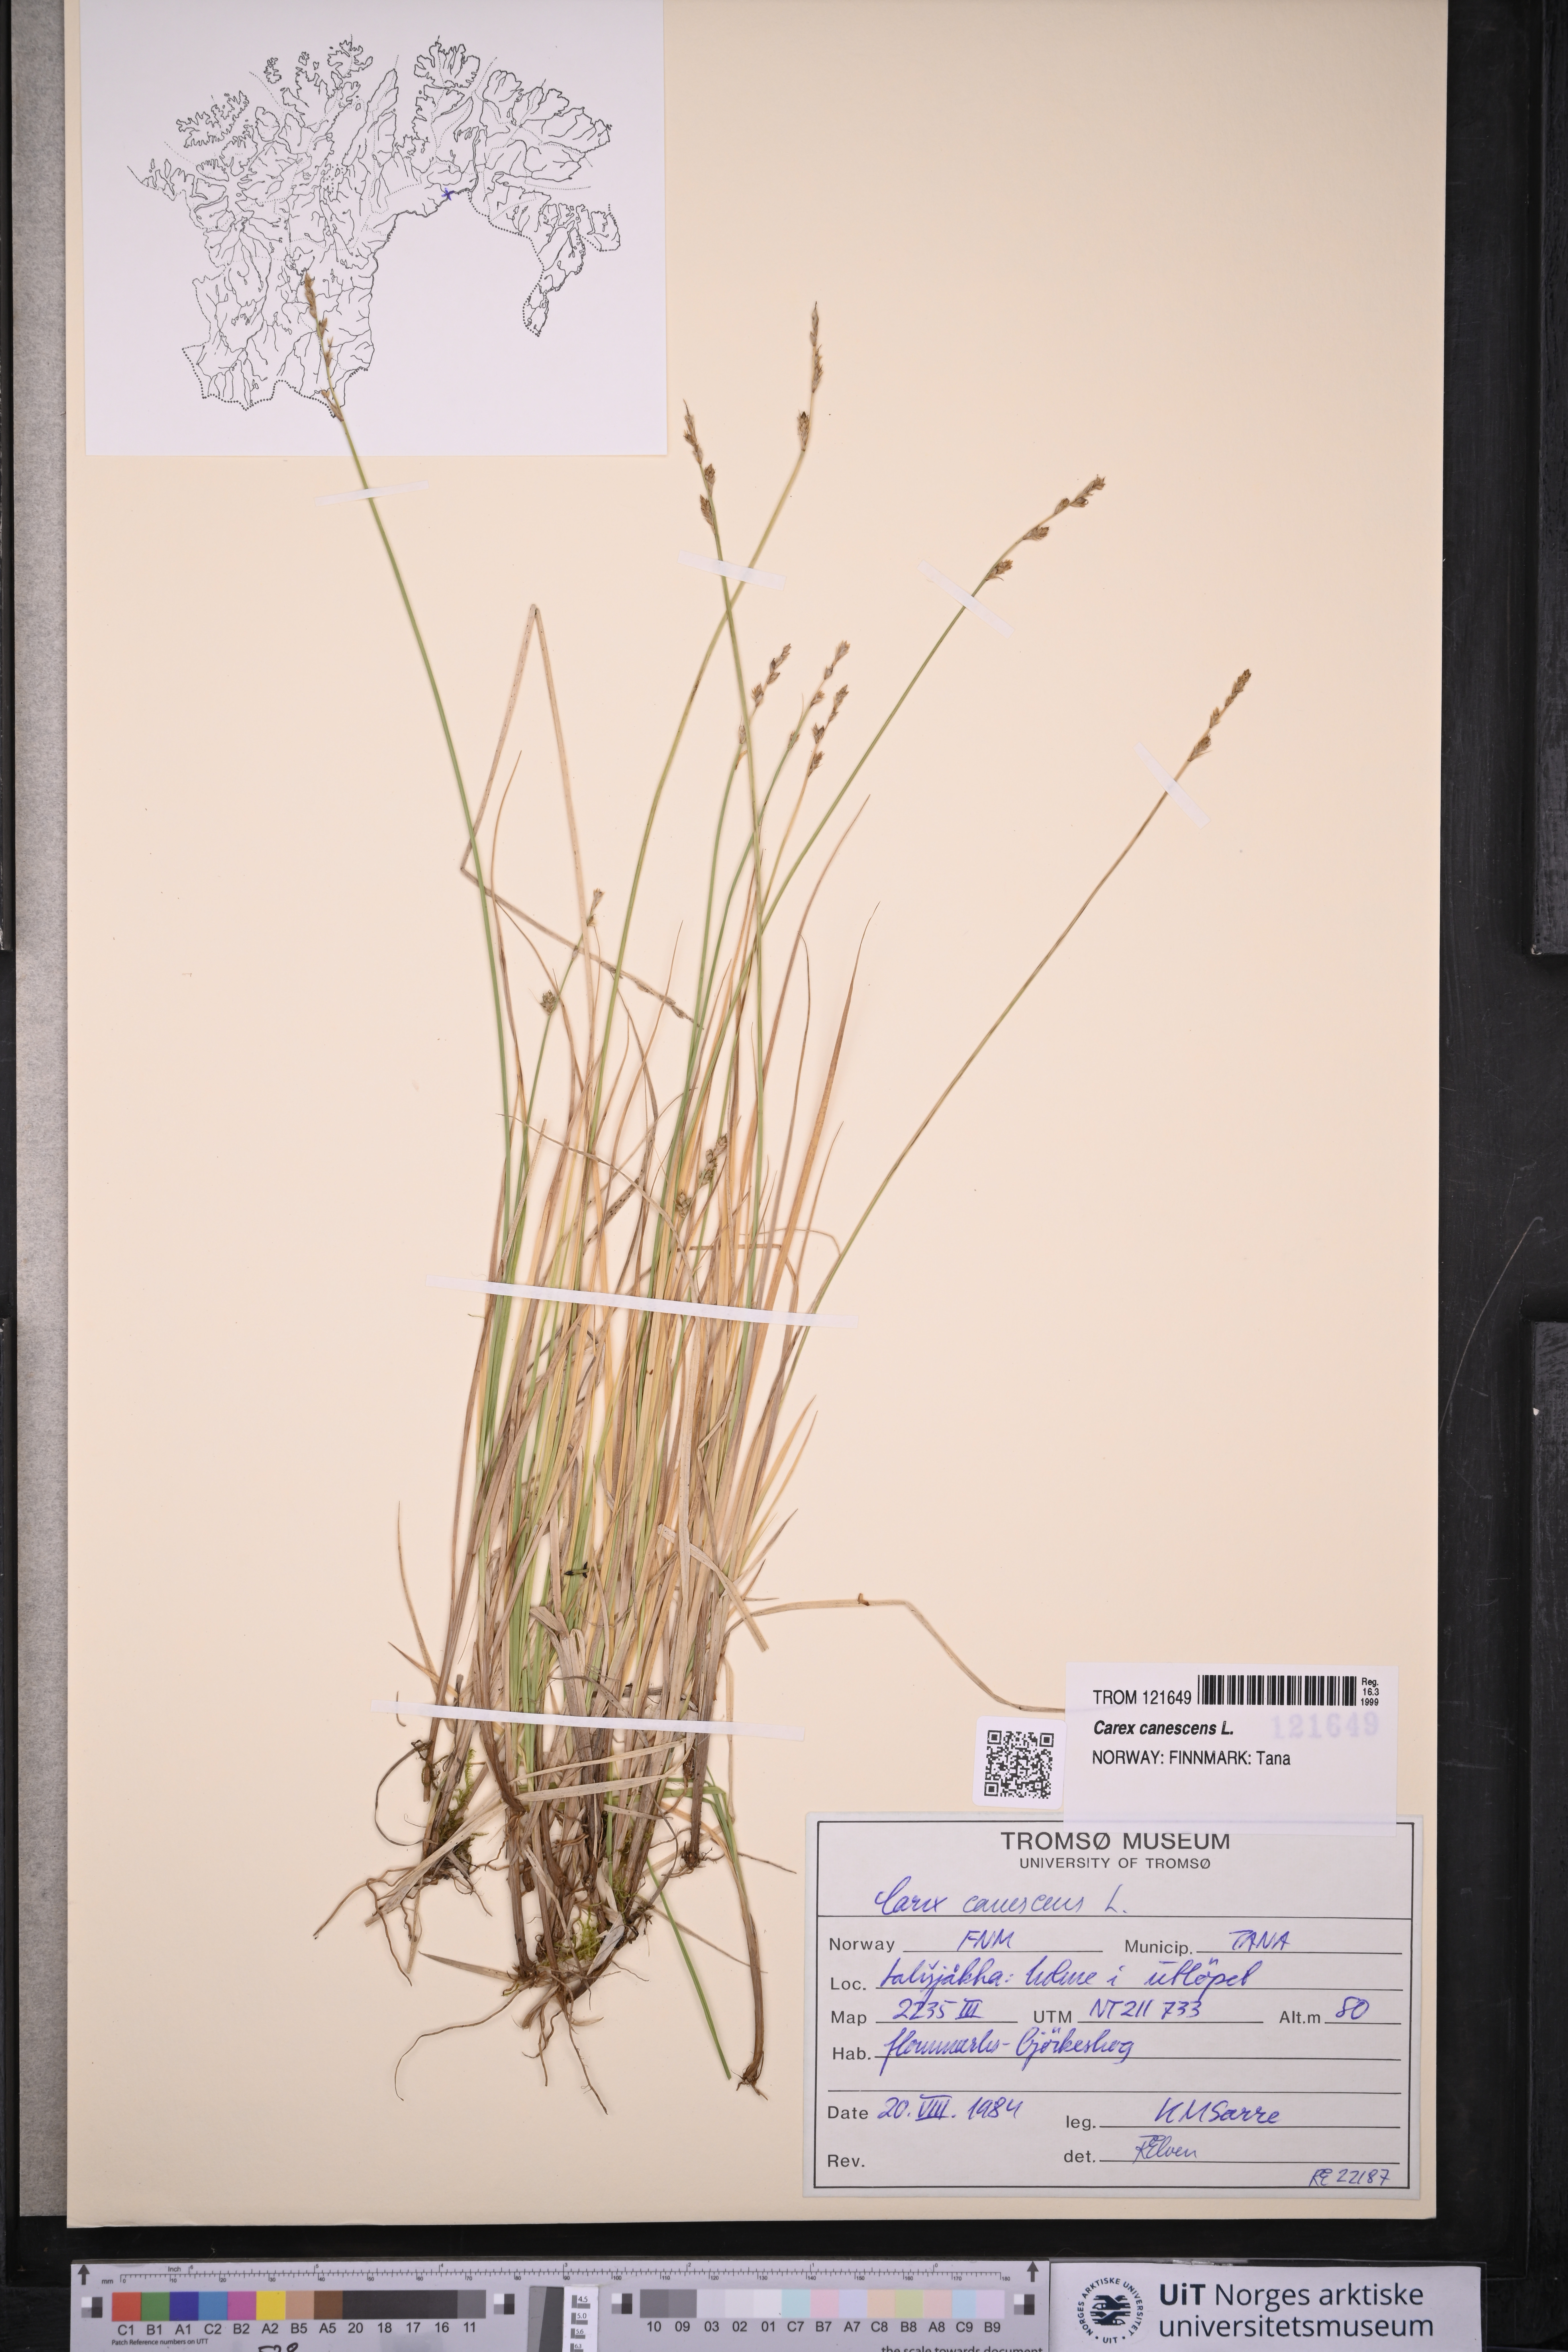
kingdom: Plantae
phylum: Tracheophyta
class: Liliopsida
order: Poales
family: Cyperaceae
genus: Carex
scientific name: Carex canescens
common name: White sedge
